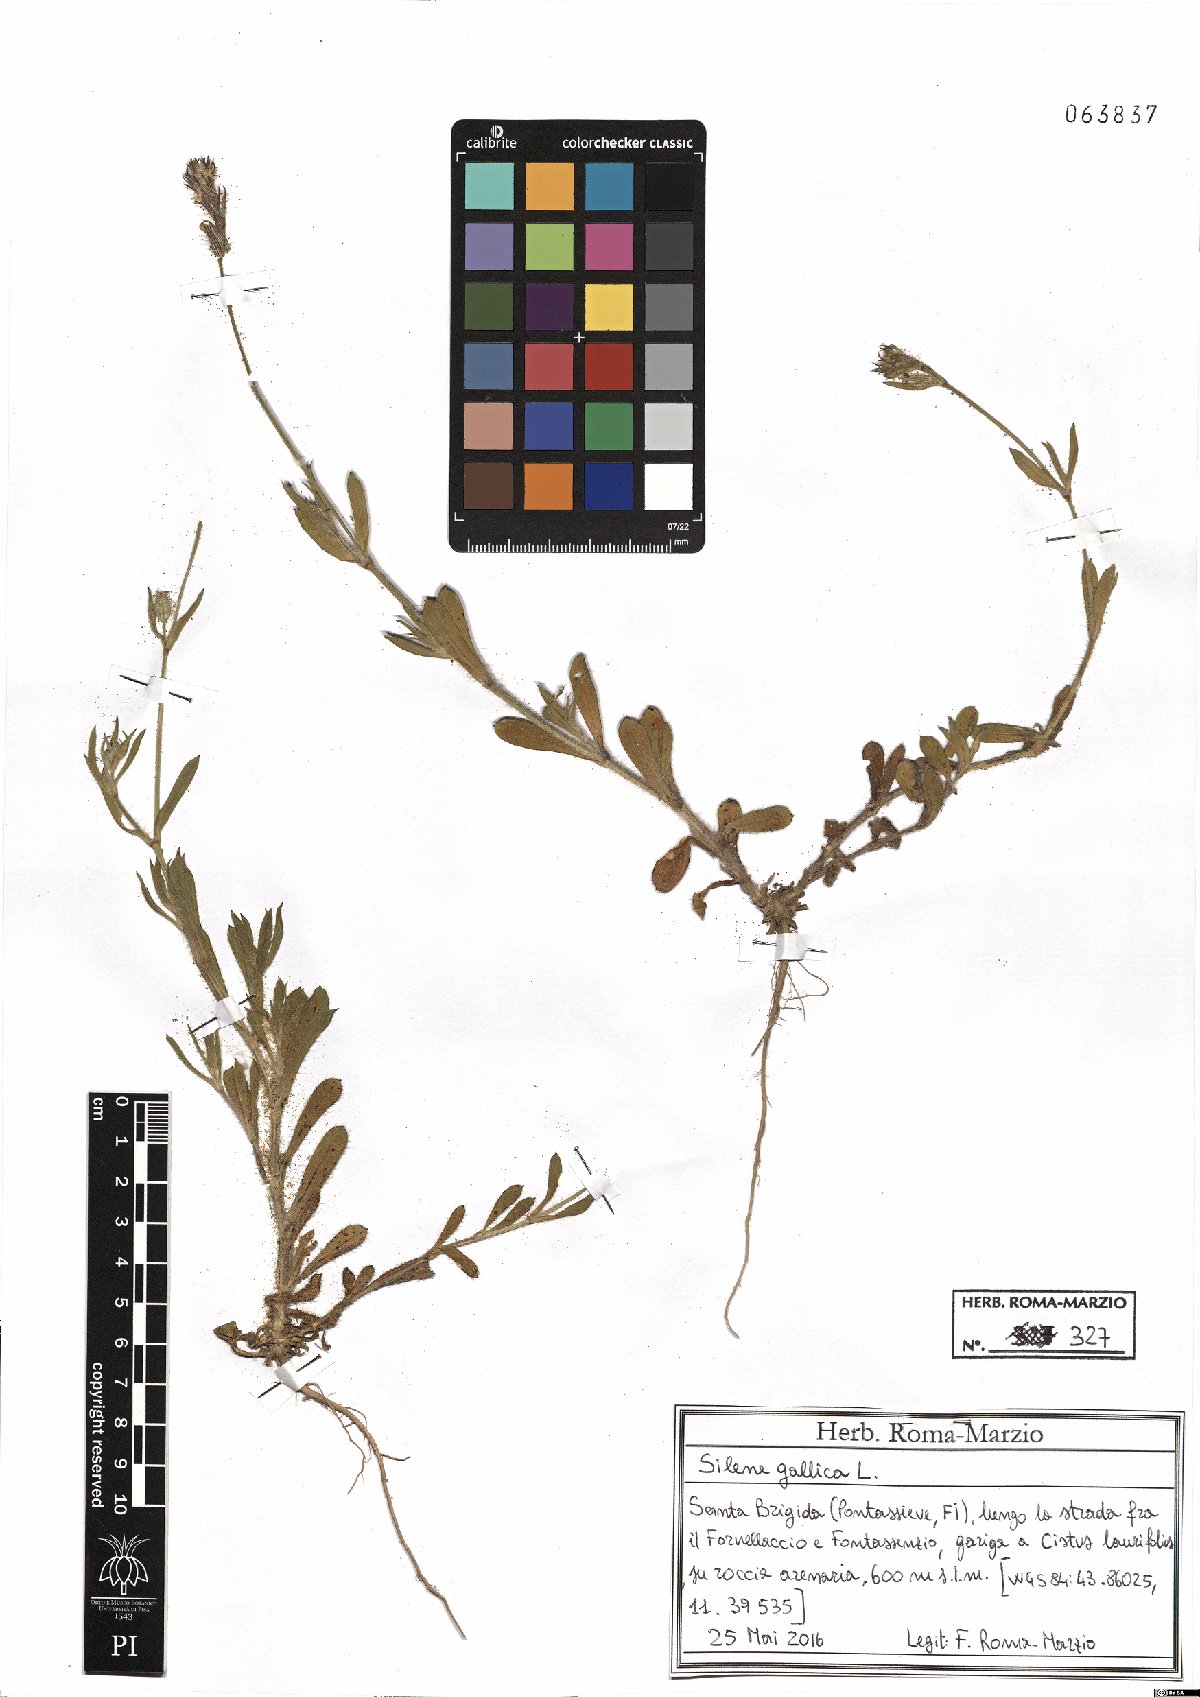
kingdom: Plantae
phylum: Tracheophyta
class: Magnoliopsida
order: Caryophyllales
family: Caryophyllaceae
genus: Silene
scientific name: Silene gallica
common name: Small-flowered catchfly
